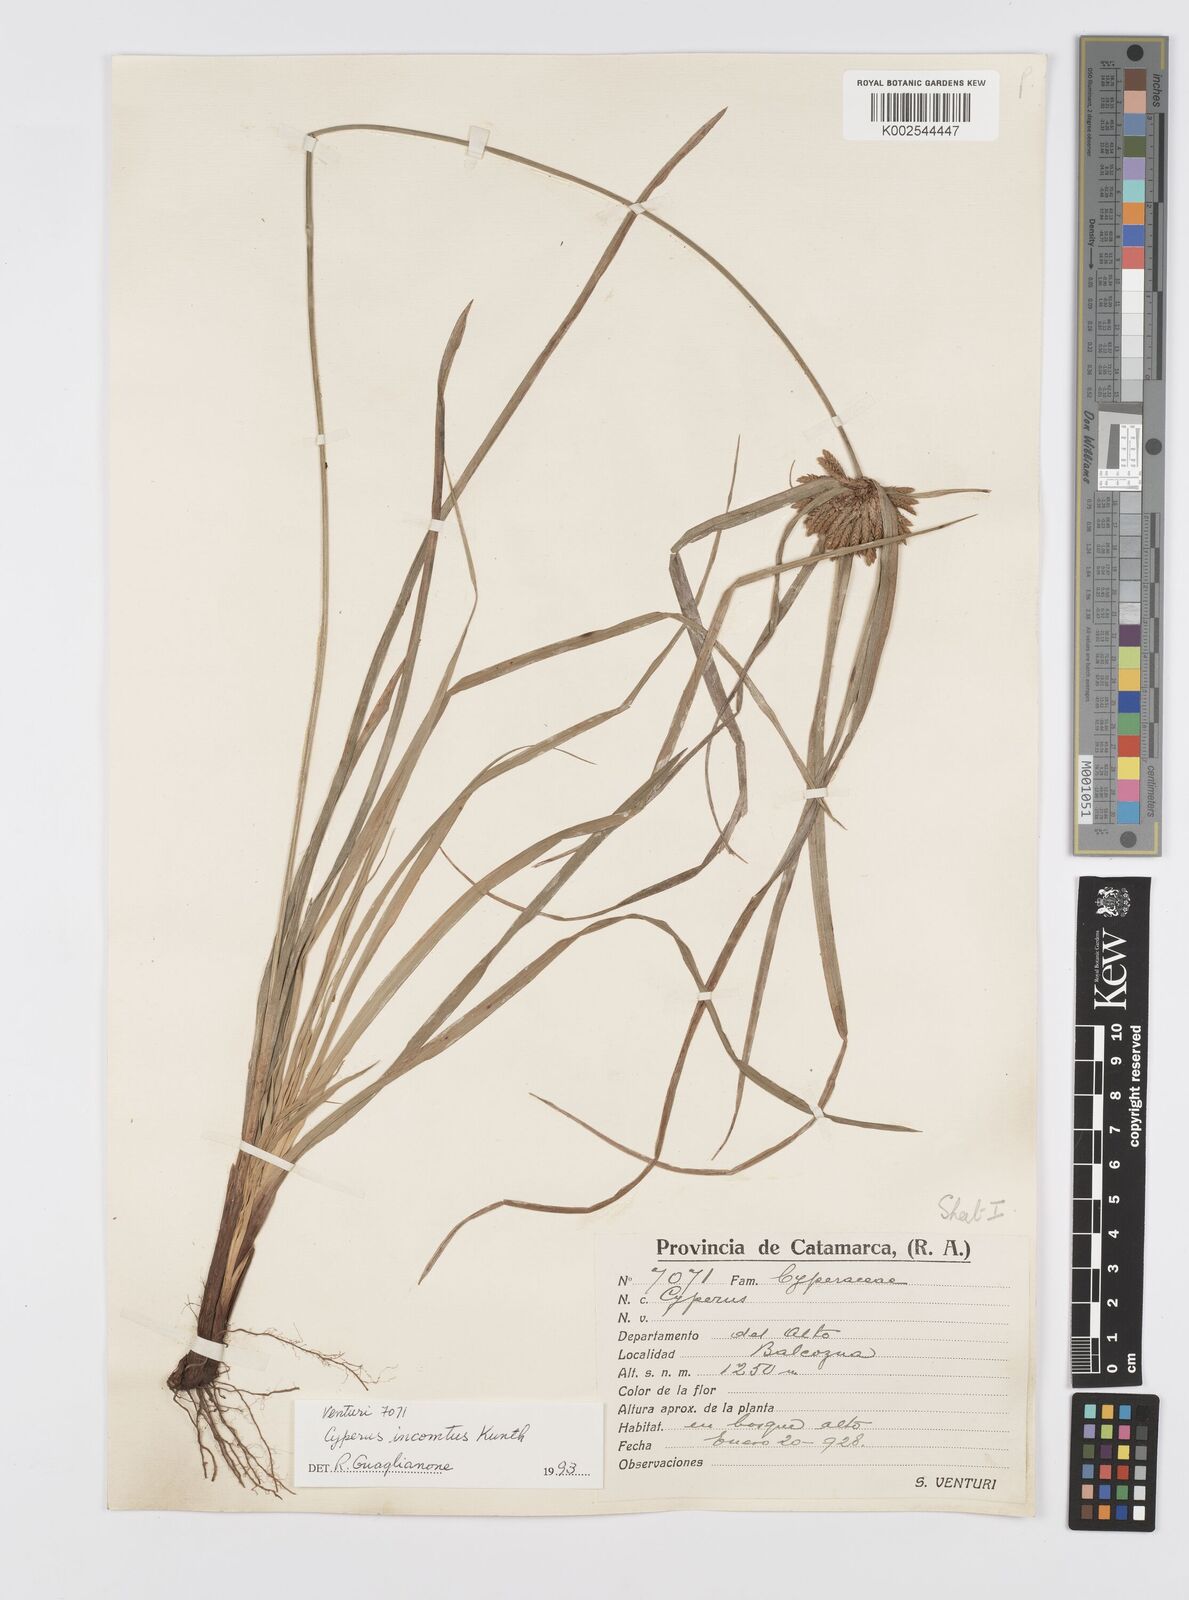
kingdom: Plantae
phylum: Tracheophyta
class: Liliopsida
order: Poales
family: Cyperaceae
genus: Cyperus
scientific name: Cyperus
